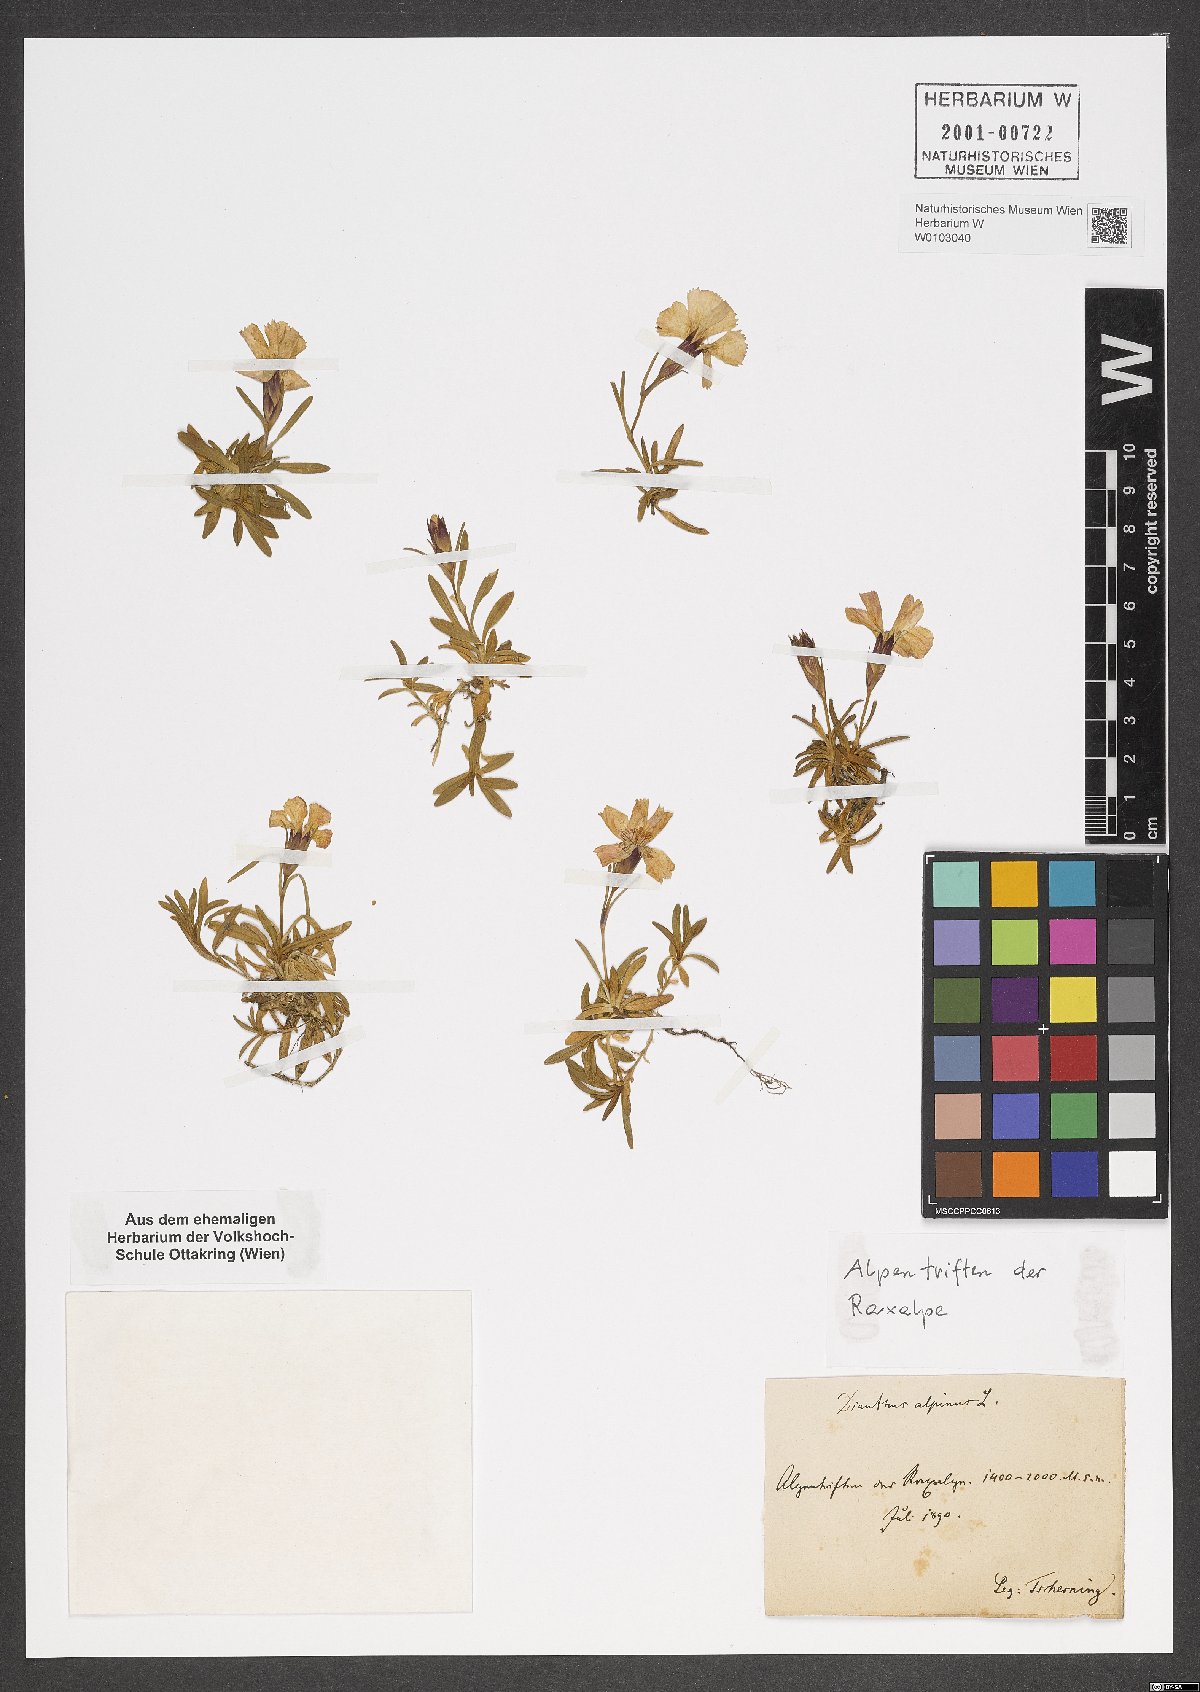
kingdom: Plantae
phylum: Tracheophyta
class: Magnoliopsida
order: Caryophyllales
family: Caryophyllaceae
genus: Dianthus
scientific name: Dianthus alpinus
